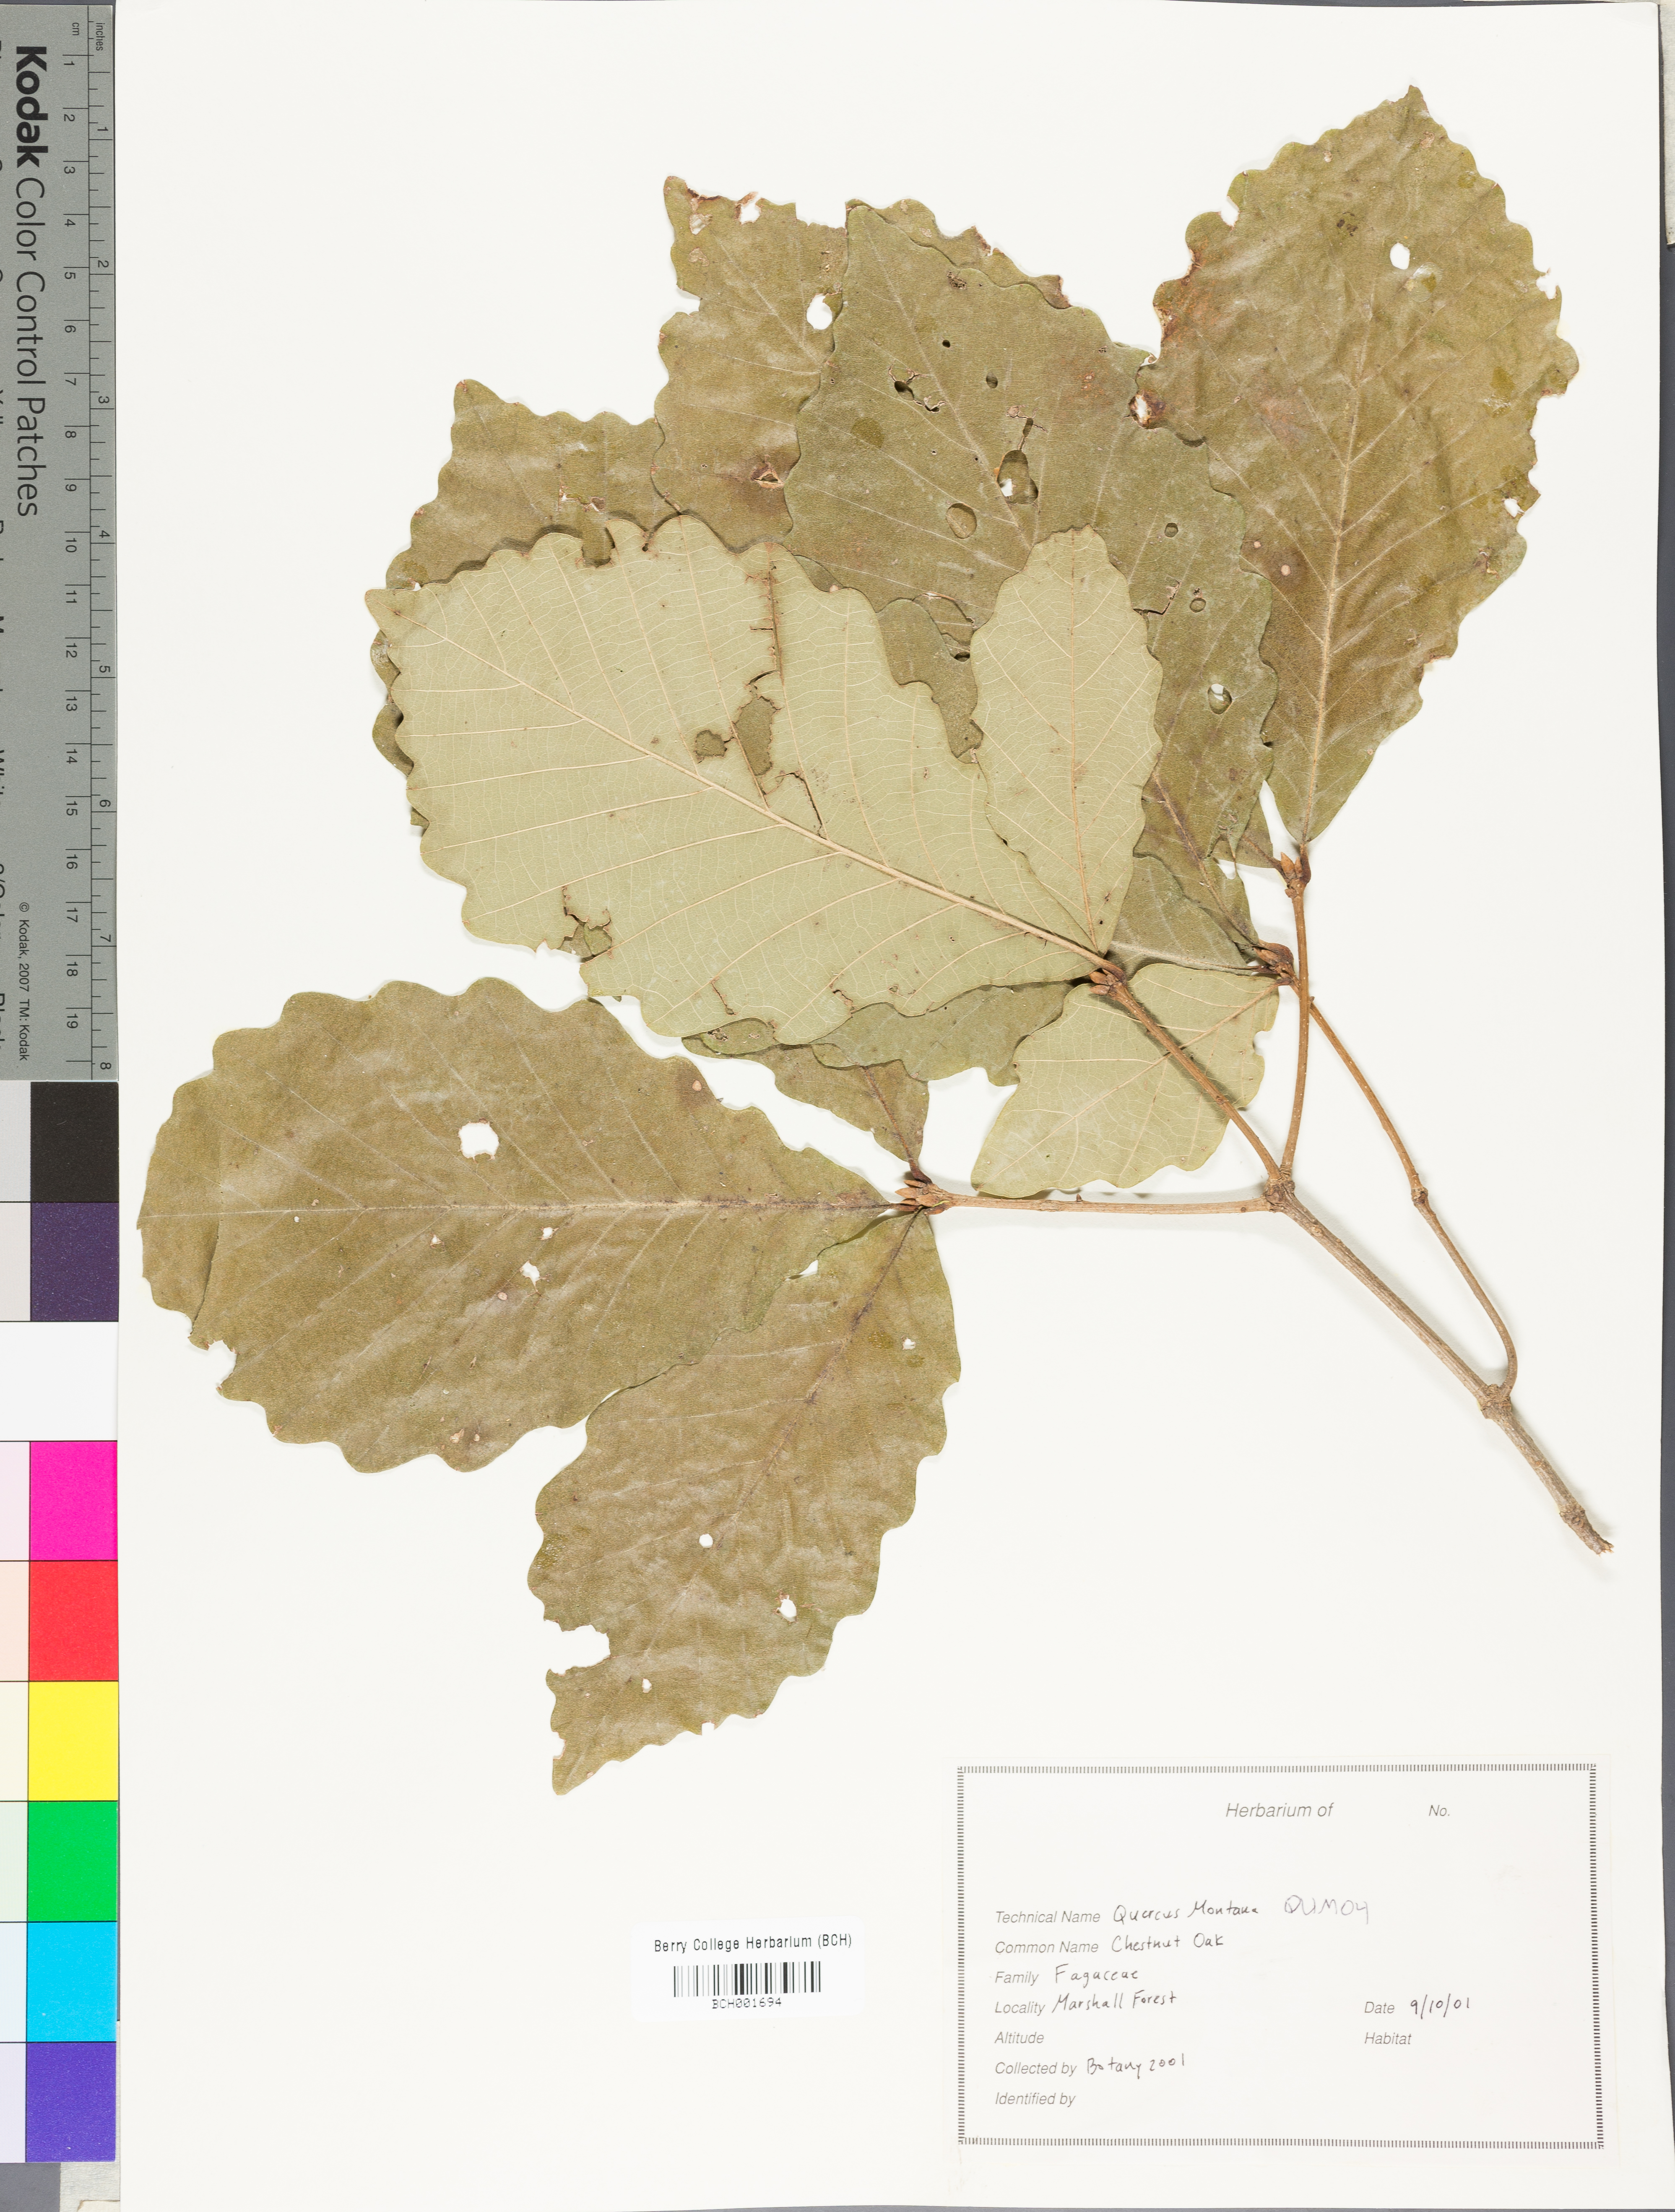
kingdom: Plantae
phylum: Tracheophyta
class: Magnoliopsida
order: Fagales
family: Fagaceae
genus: Quercus
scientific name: Quercus montana
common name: Chestnut oak
